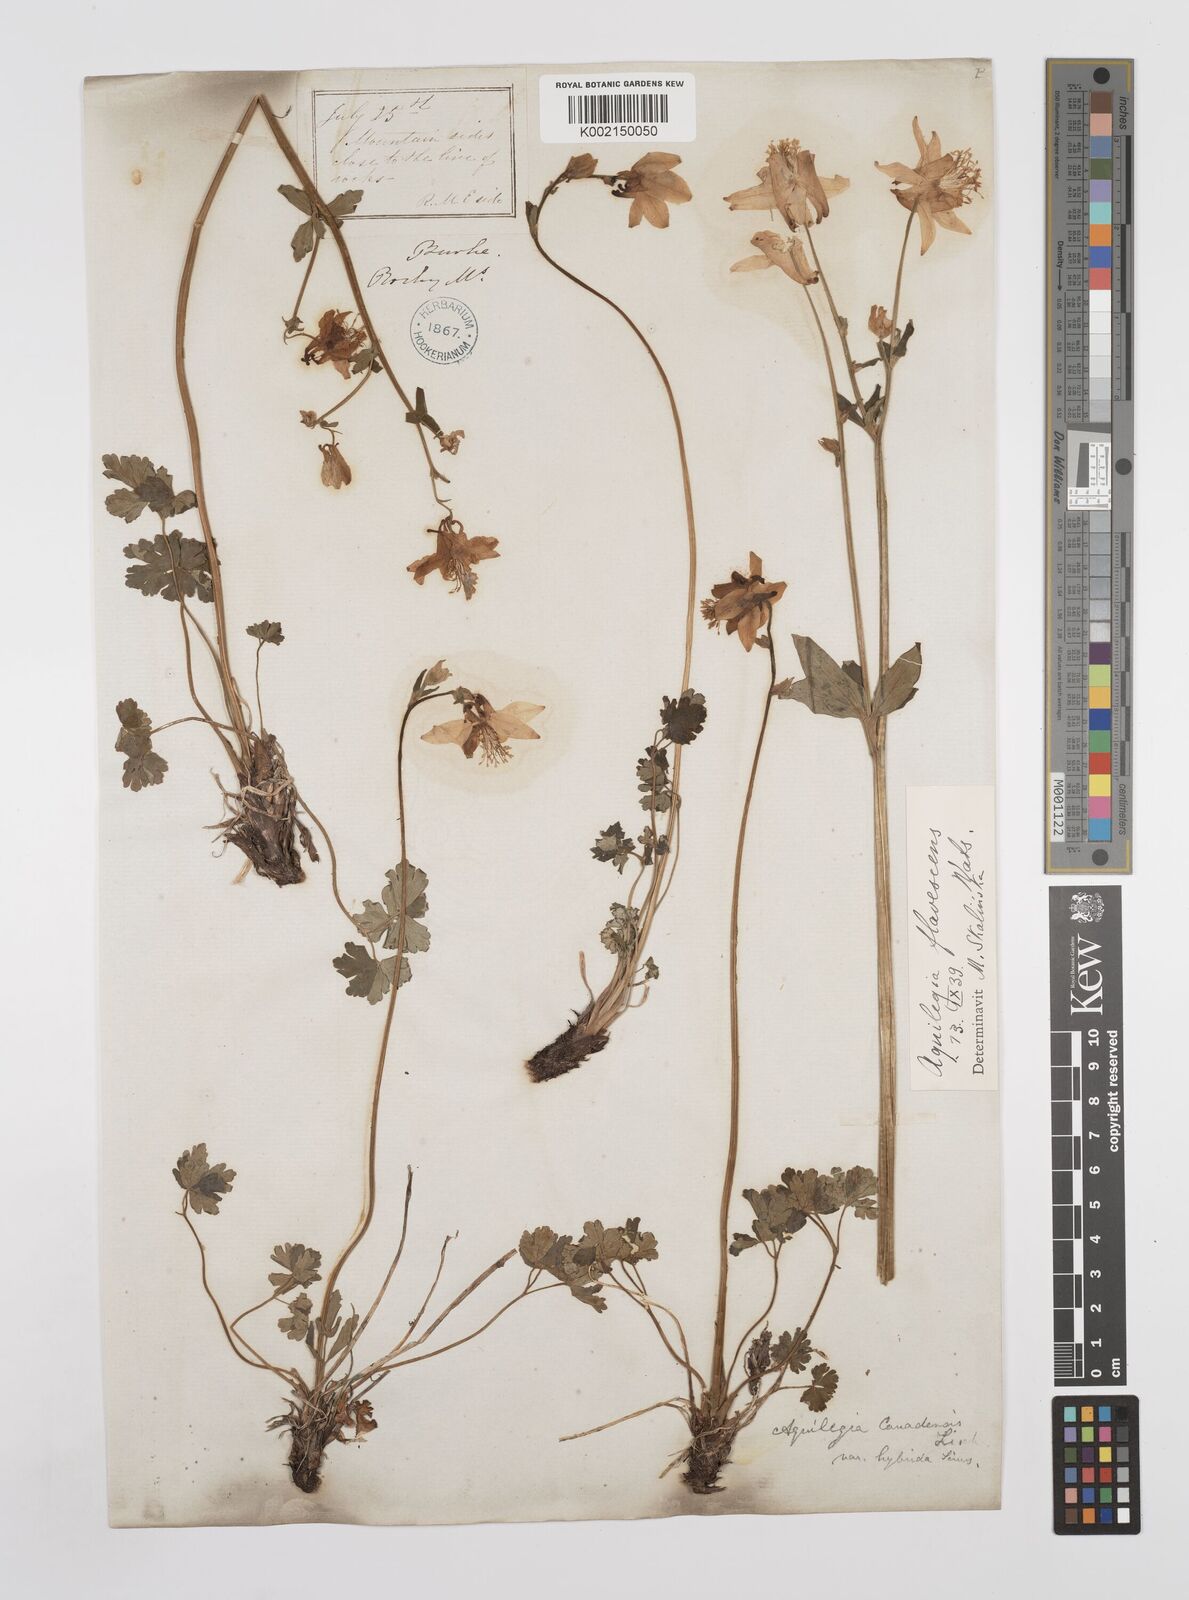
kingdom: Plantae
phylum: Tracheophyta
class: Magnoliopsida
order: Ranunculales
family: Ranunculaceae
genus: Aquilegia
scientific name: Aquilegia flavescens
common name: Yellow columbine
